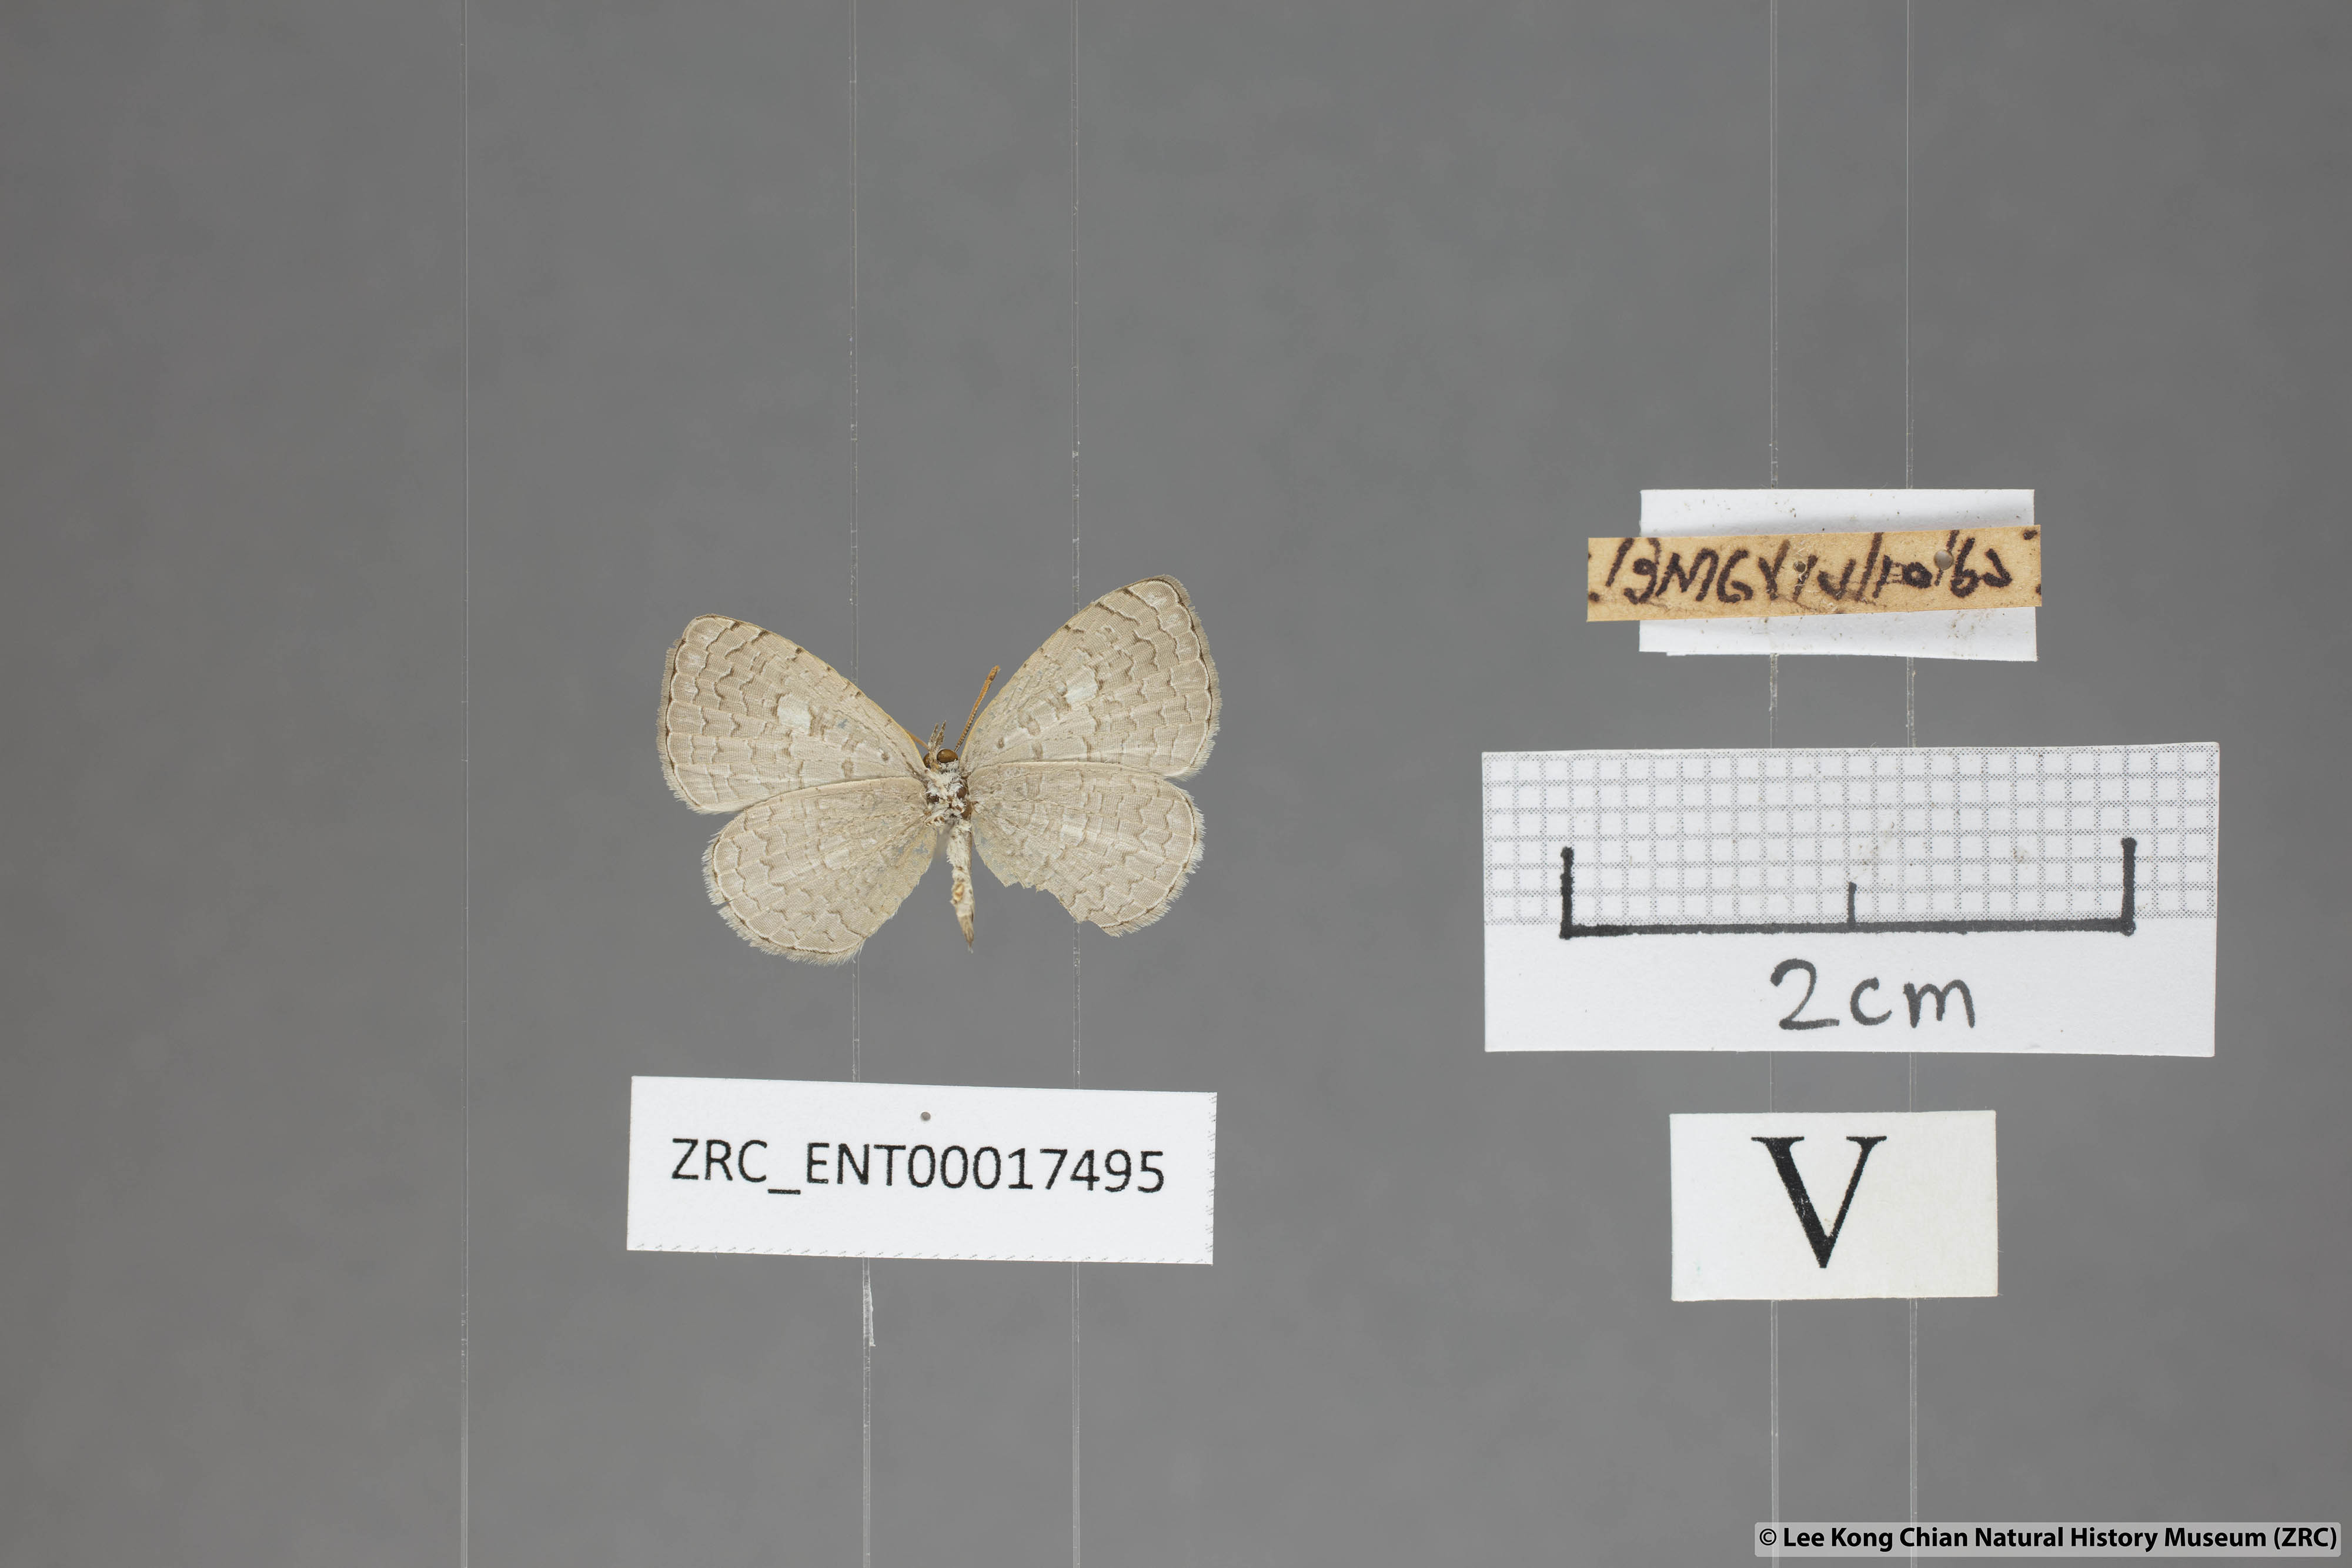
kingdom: Animalia
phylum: Arthropoda
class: Insecta
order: Lepidoptera
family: Lycaenidae
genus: Spalgis
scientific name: Spalgis epeus
